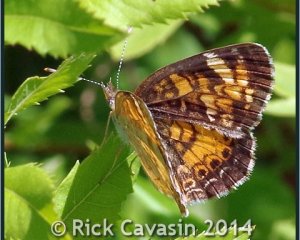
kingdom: Animalia
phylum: Arthropoda
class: Insecta
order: Lepidoptera
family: Nymphalidae
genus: Phyciodes
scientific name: Phyciodes tharos
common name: Northern Crescent
